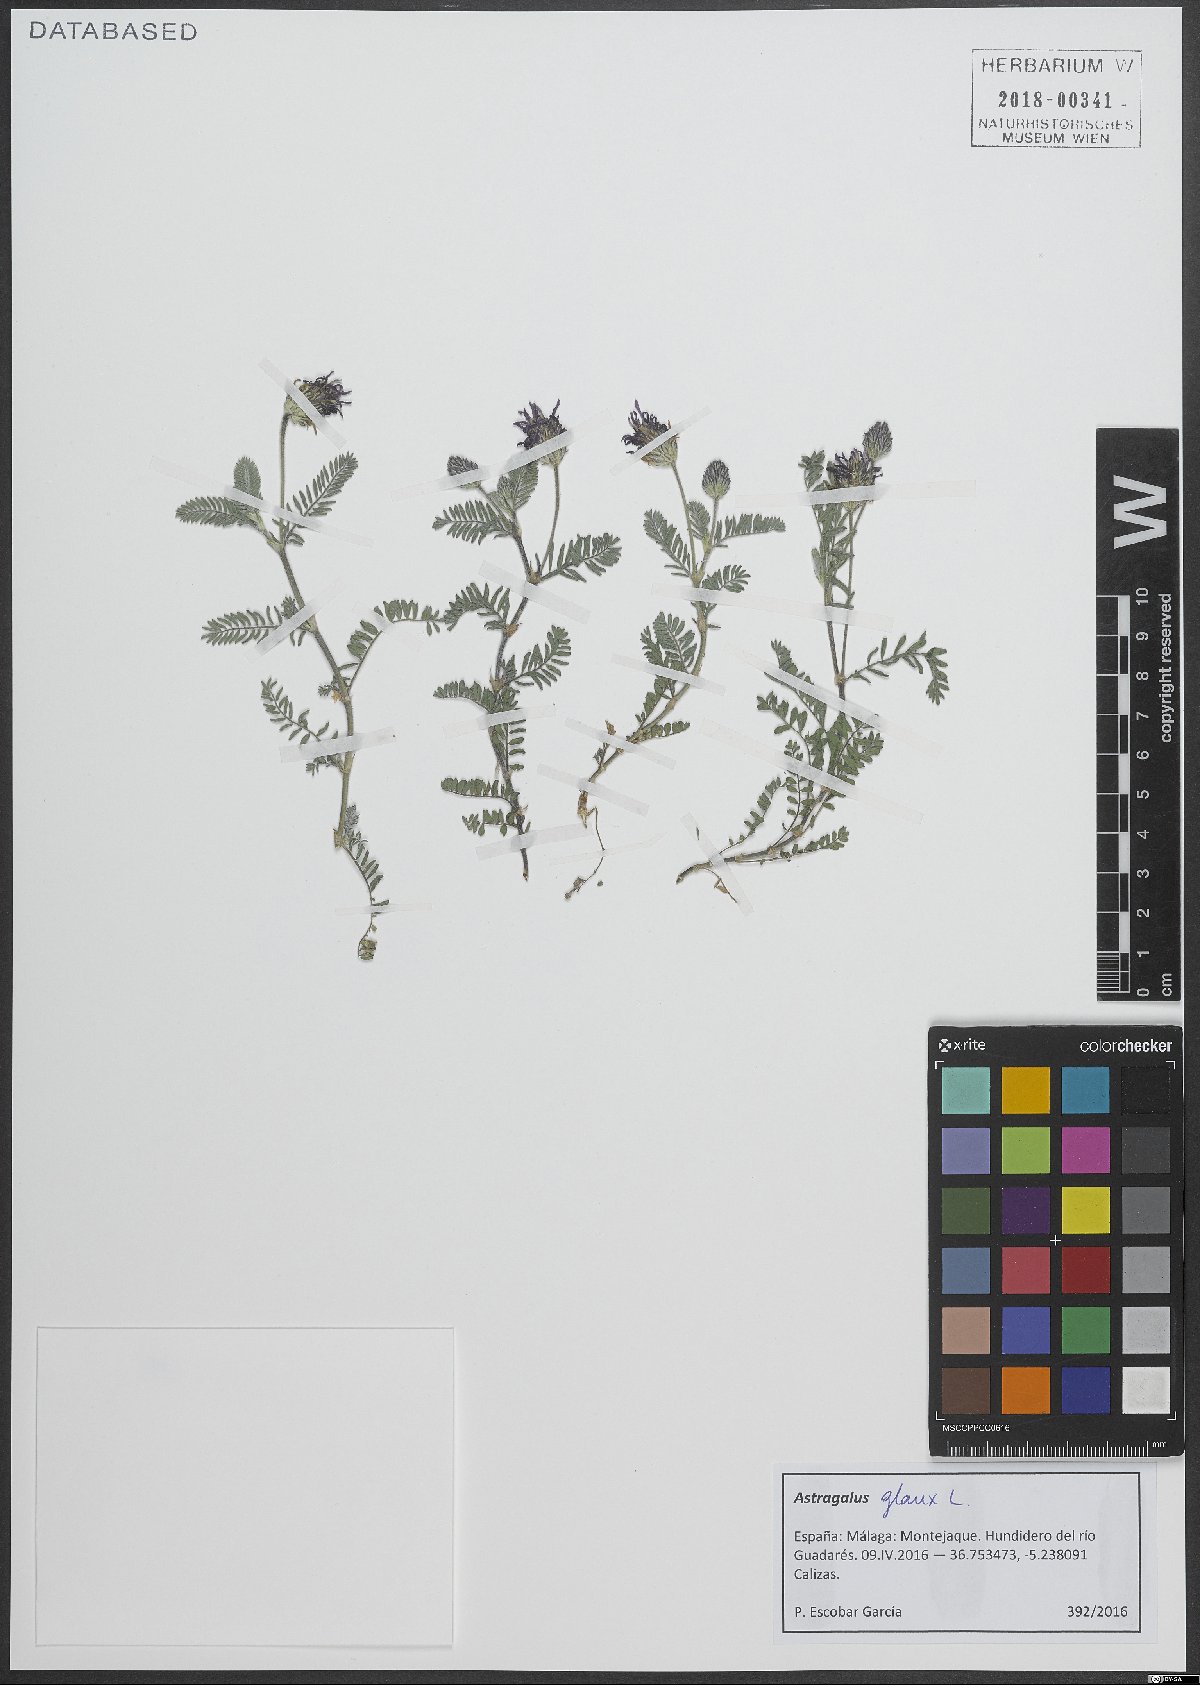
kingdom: Plantae
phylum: Tracheophyta
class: Magnoliopsida
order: Fabales
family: Fabaceae
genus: Astragalus
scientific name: Astragalus glaux
